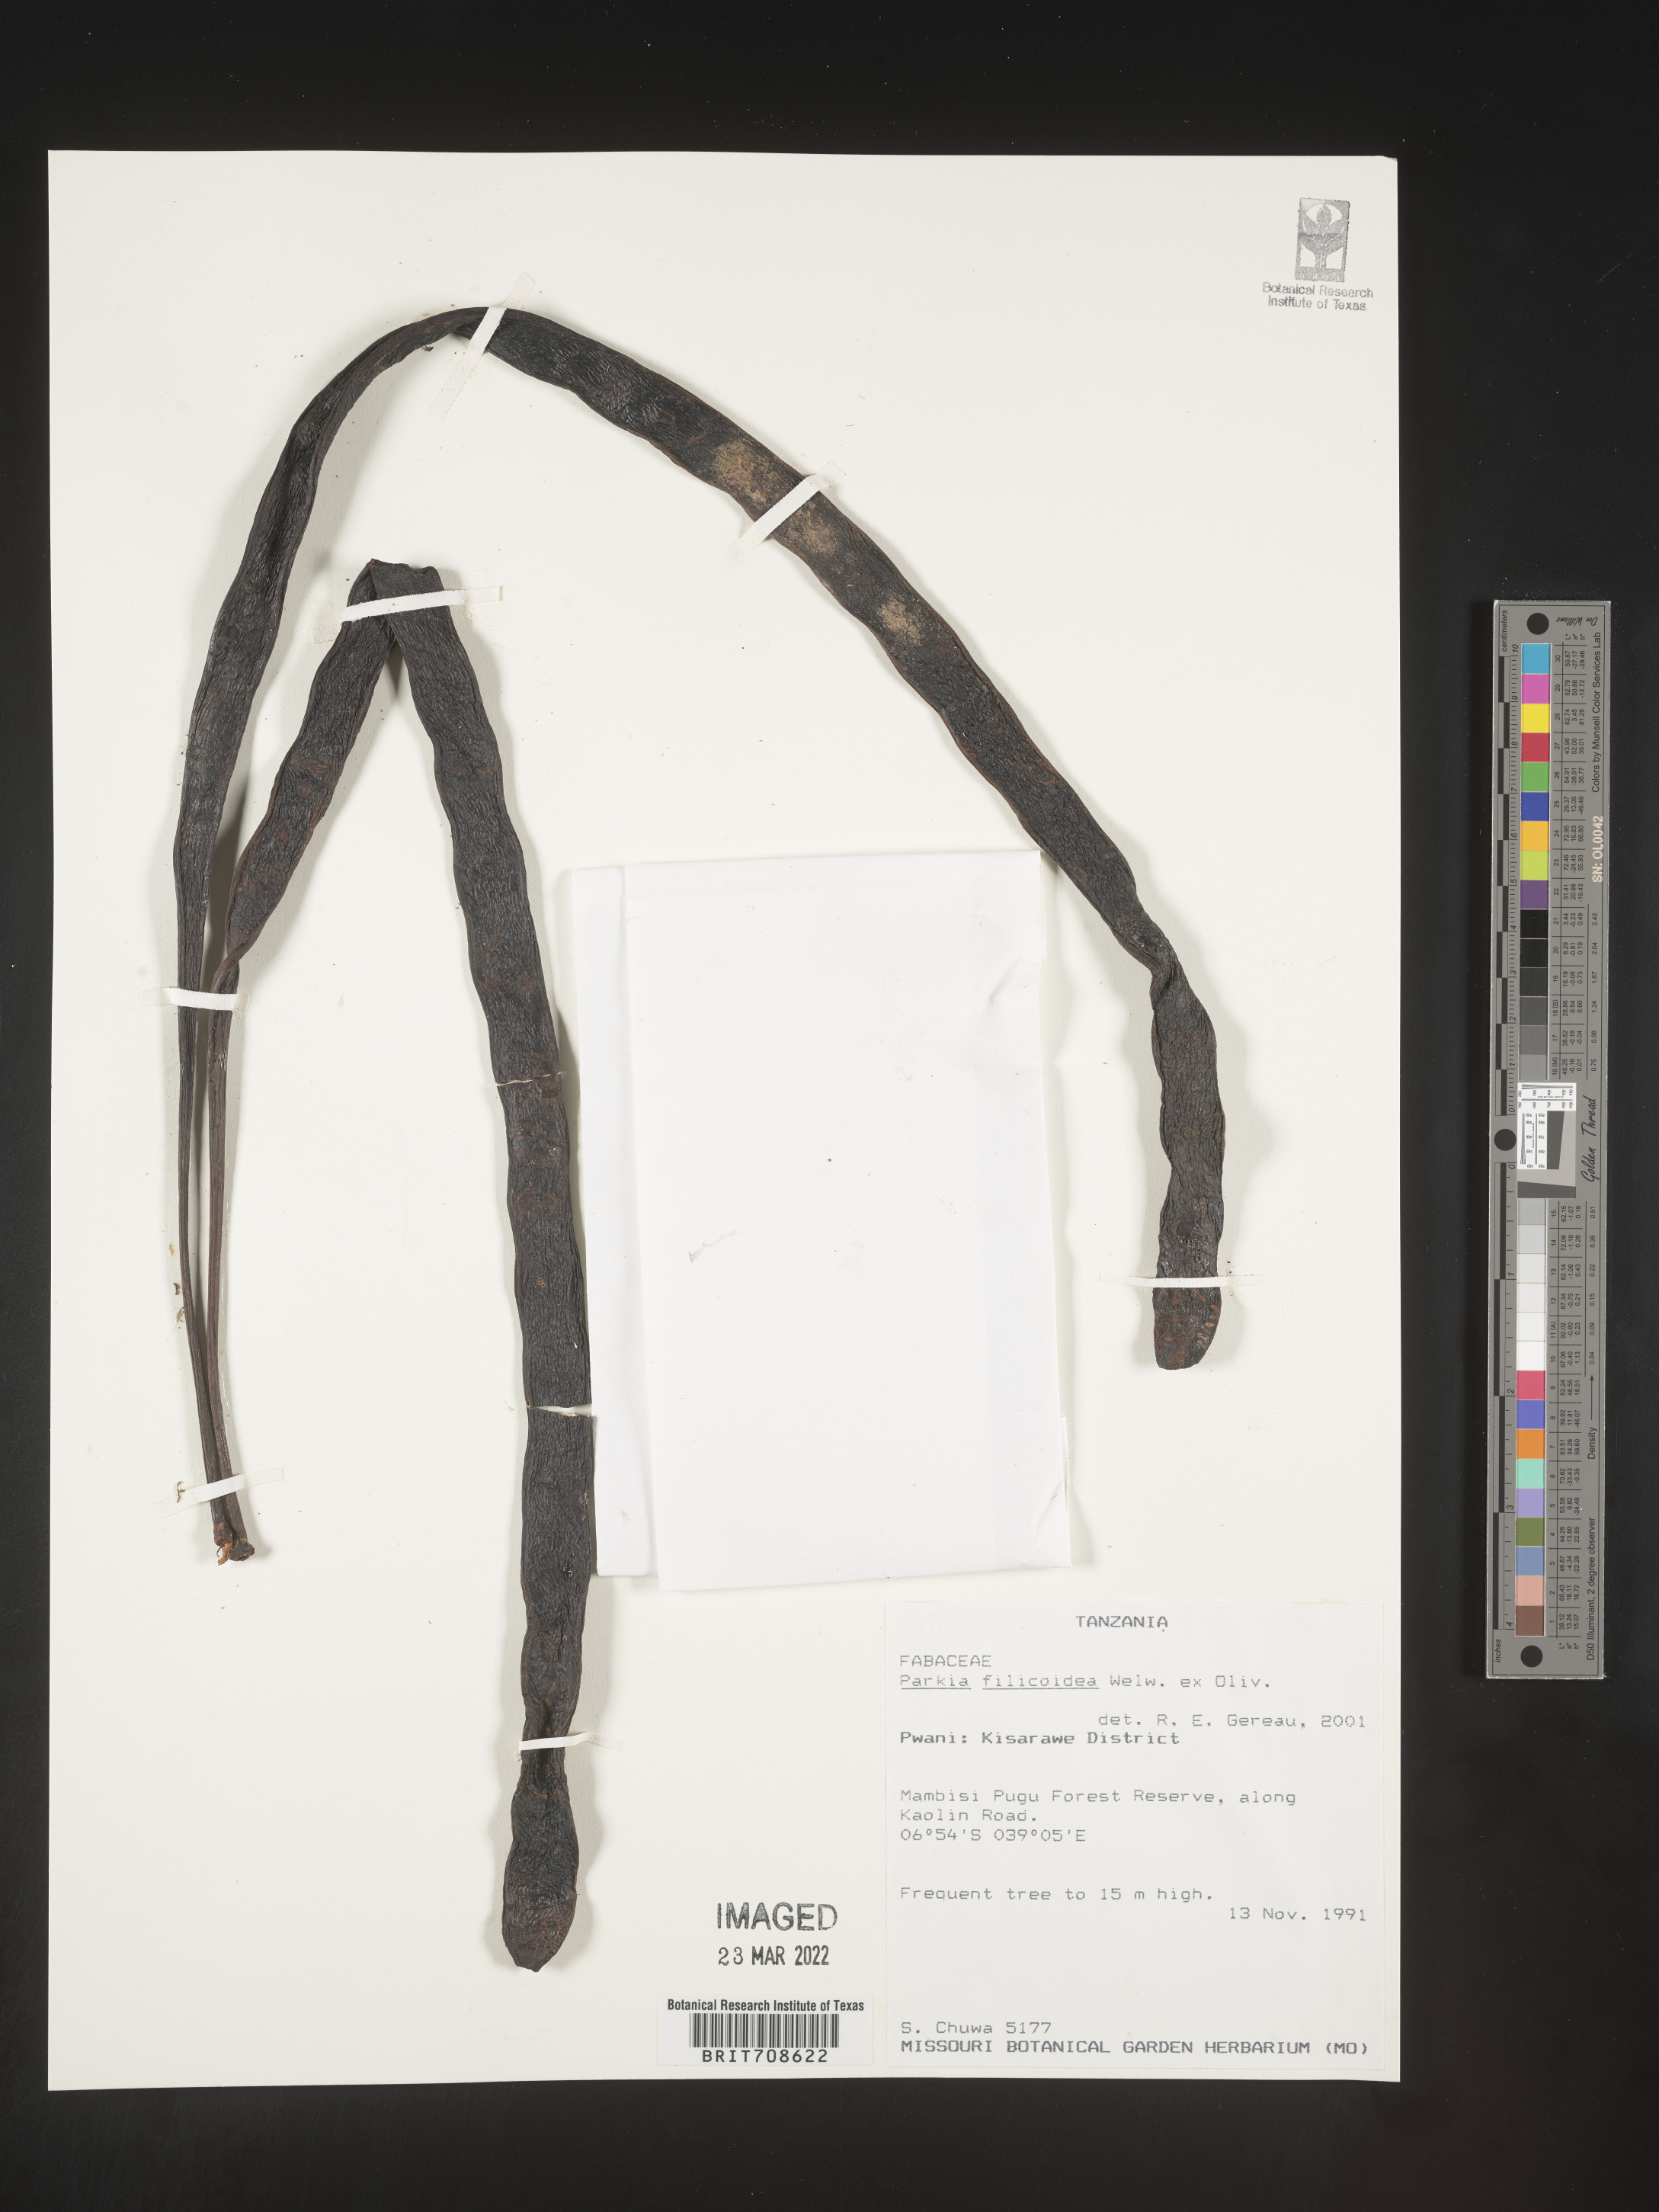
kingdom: Plantae
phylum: Tracheophyta
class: Magnoliopsida
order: Fabales
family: Fabaceae
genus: Parkia
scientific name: Parkia
